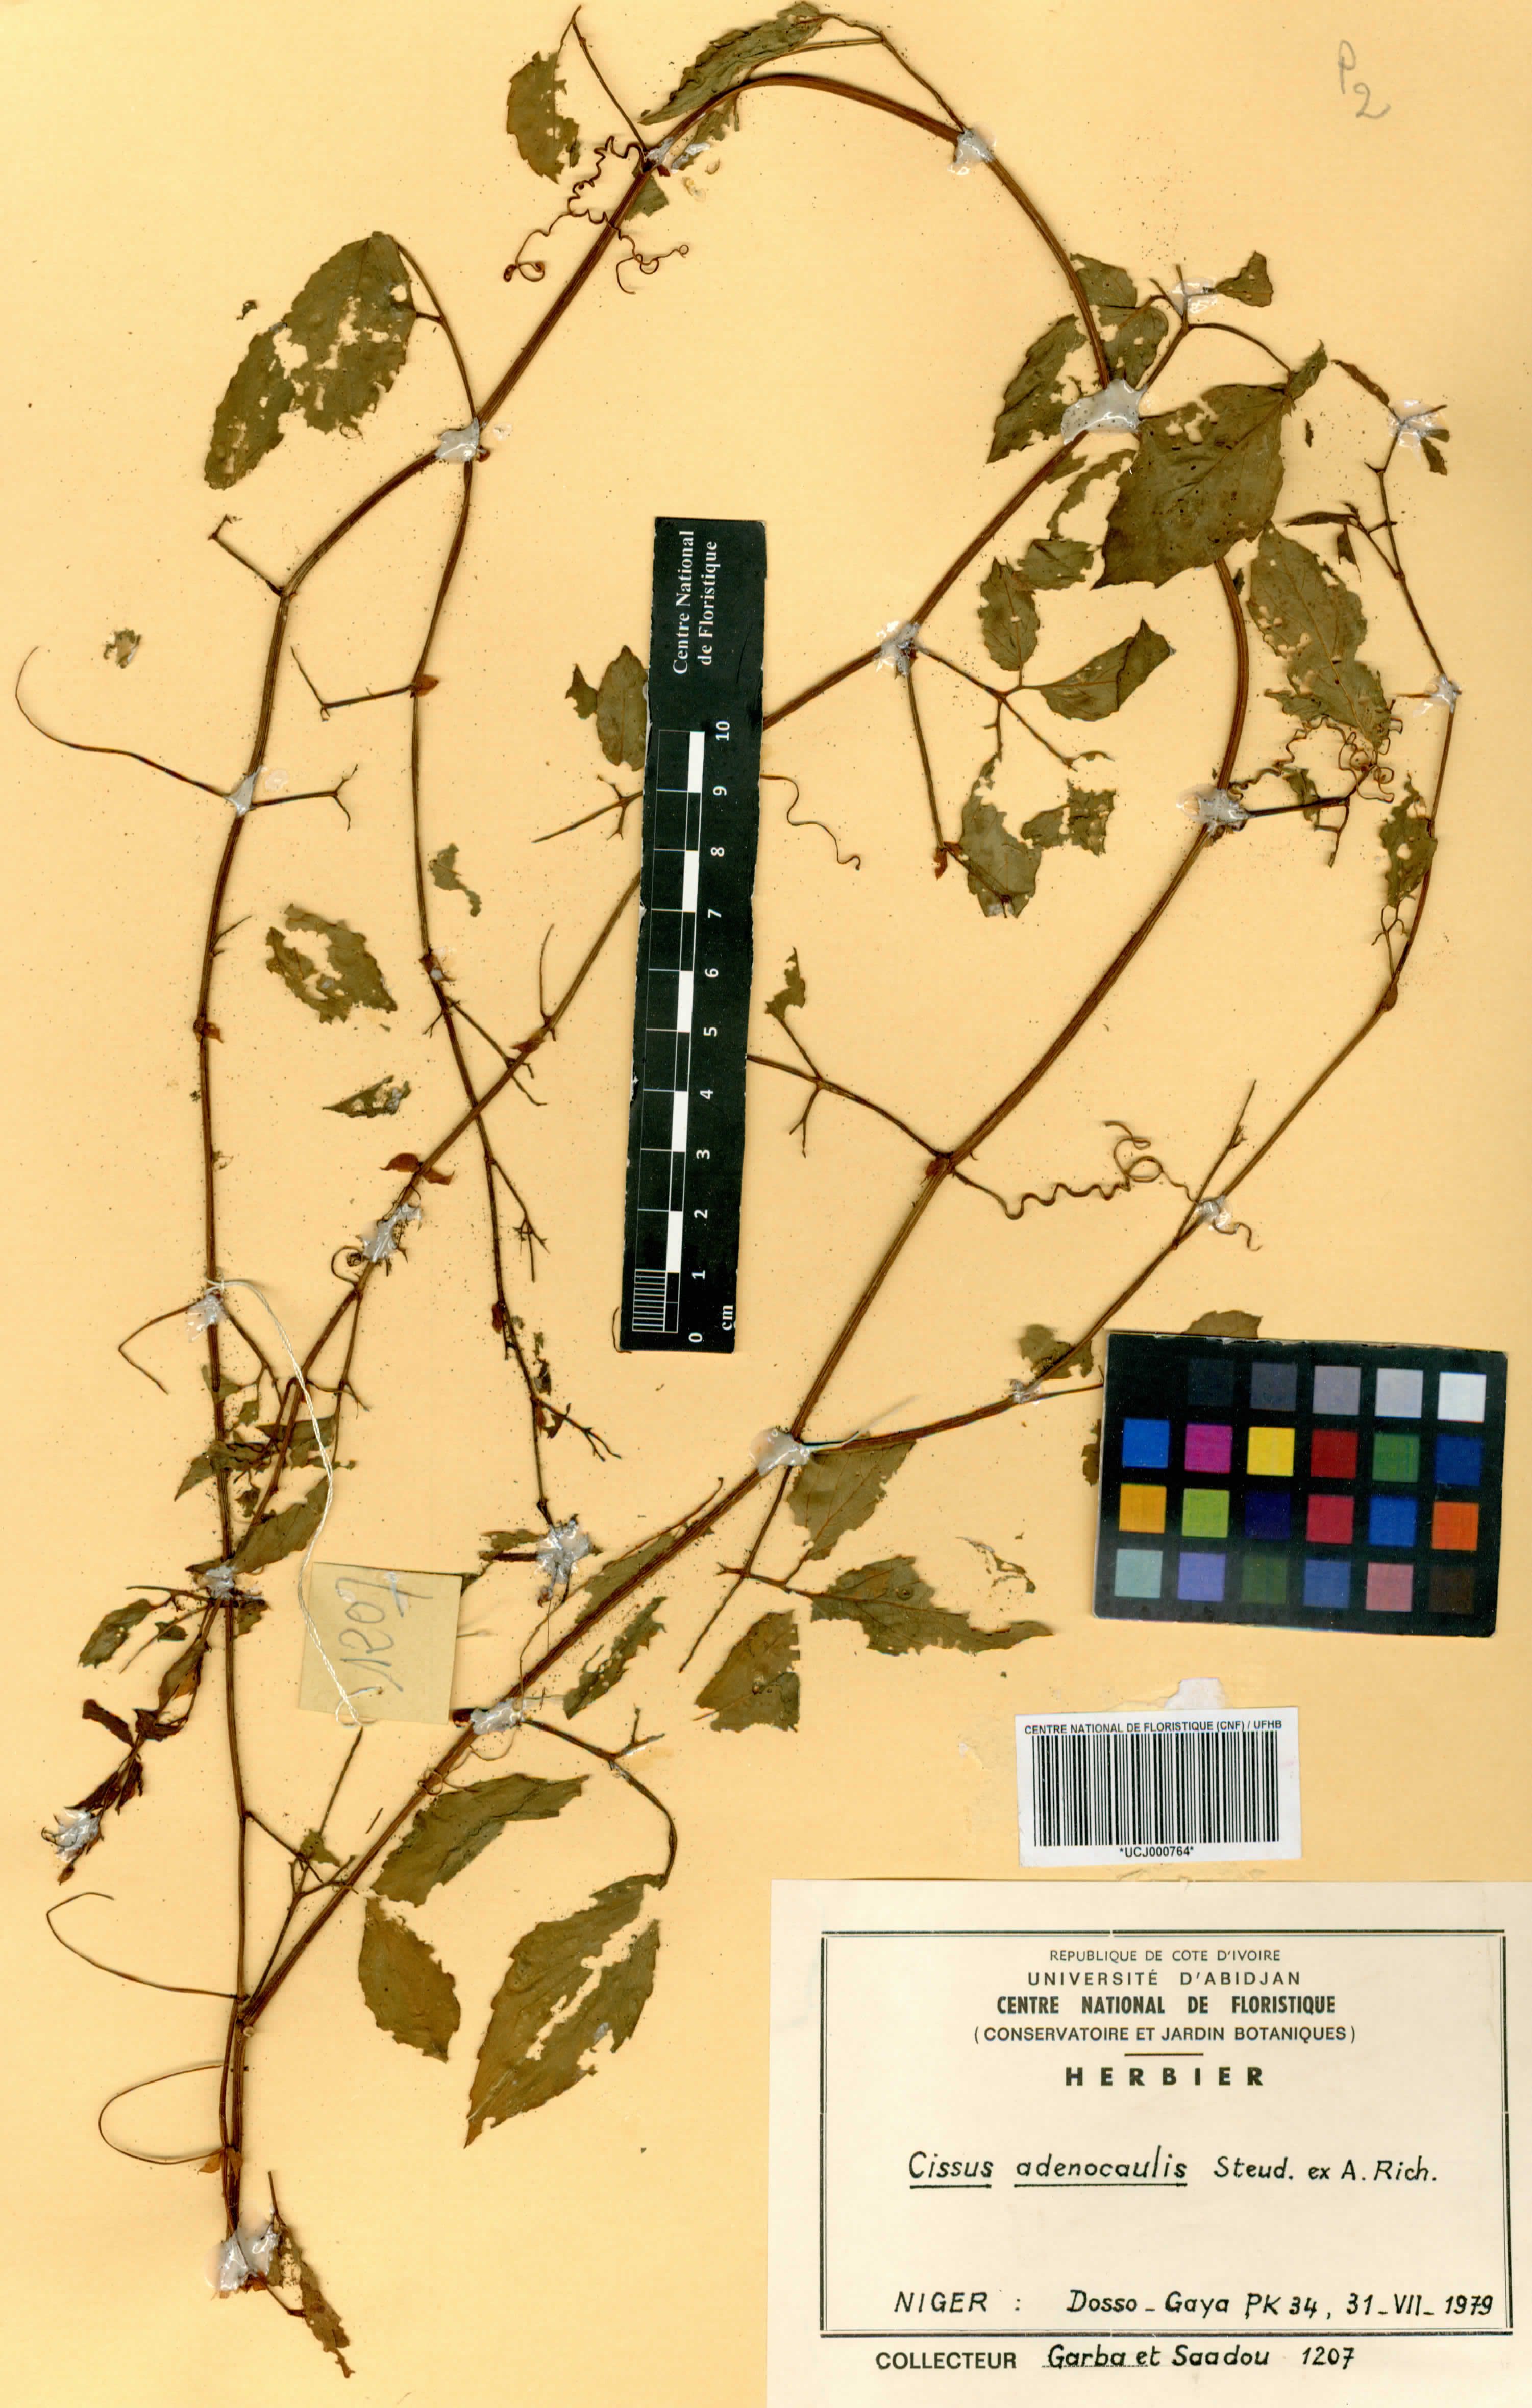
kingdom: Plantae
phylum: Tracheophyta
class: Magnoliopsida
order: Vitales
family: Vitaceae
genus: Cissus
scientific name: Cissus
